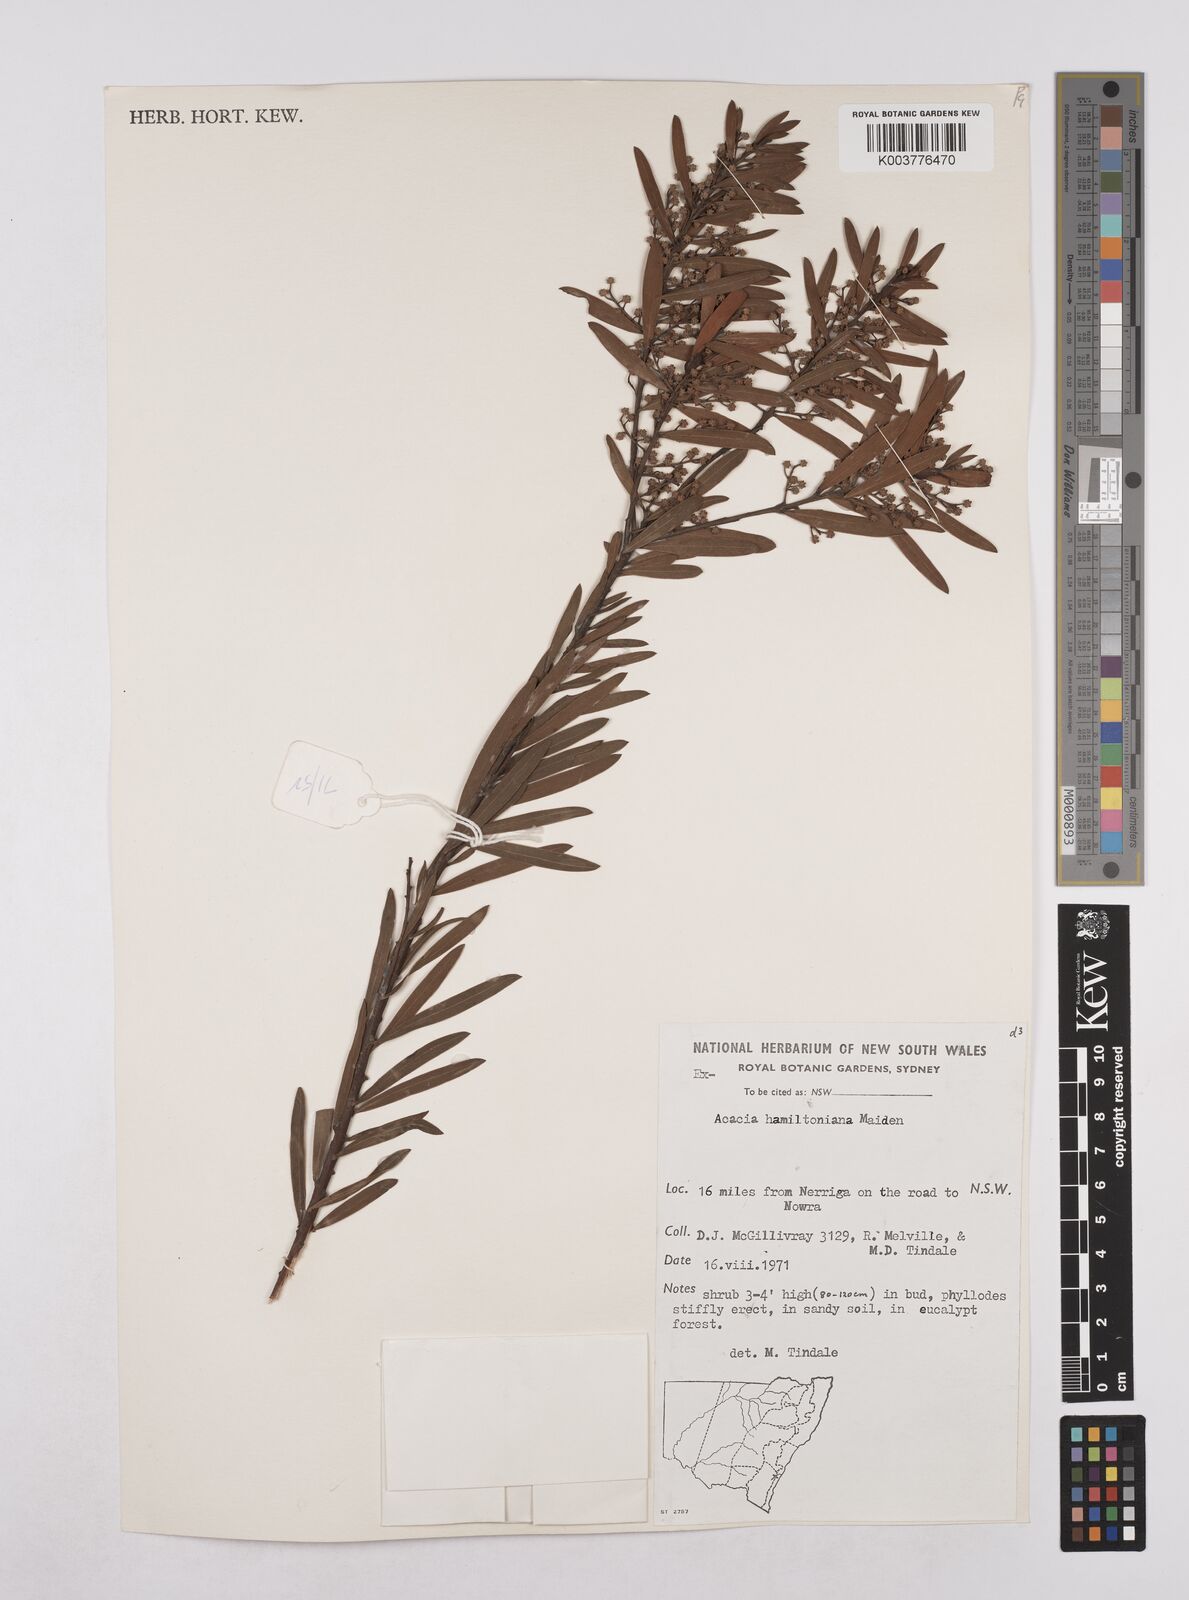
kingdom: Plantae
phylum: Tracheophyta
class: Magnoliopsida
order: Fabales
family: Fabaceae
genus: Acacia
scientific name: Acacia hamiltoniana
